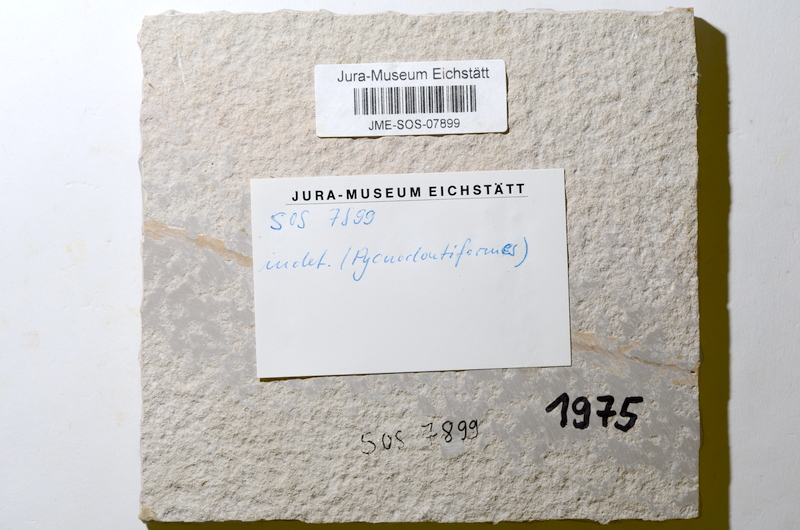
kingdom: Animalia
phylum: Chordata
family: Gyrodontidae
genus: Gyrodus
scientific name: Gyrodus
